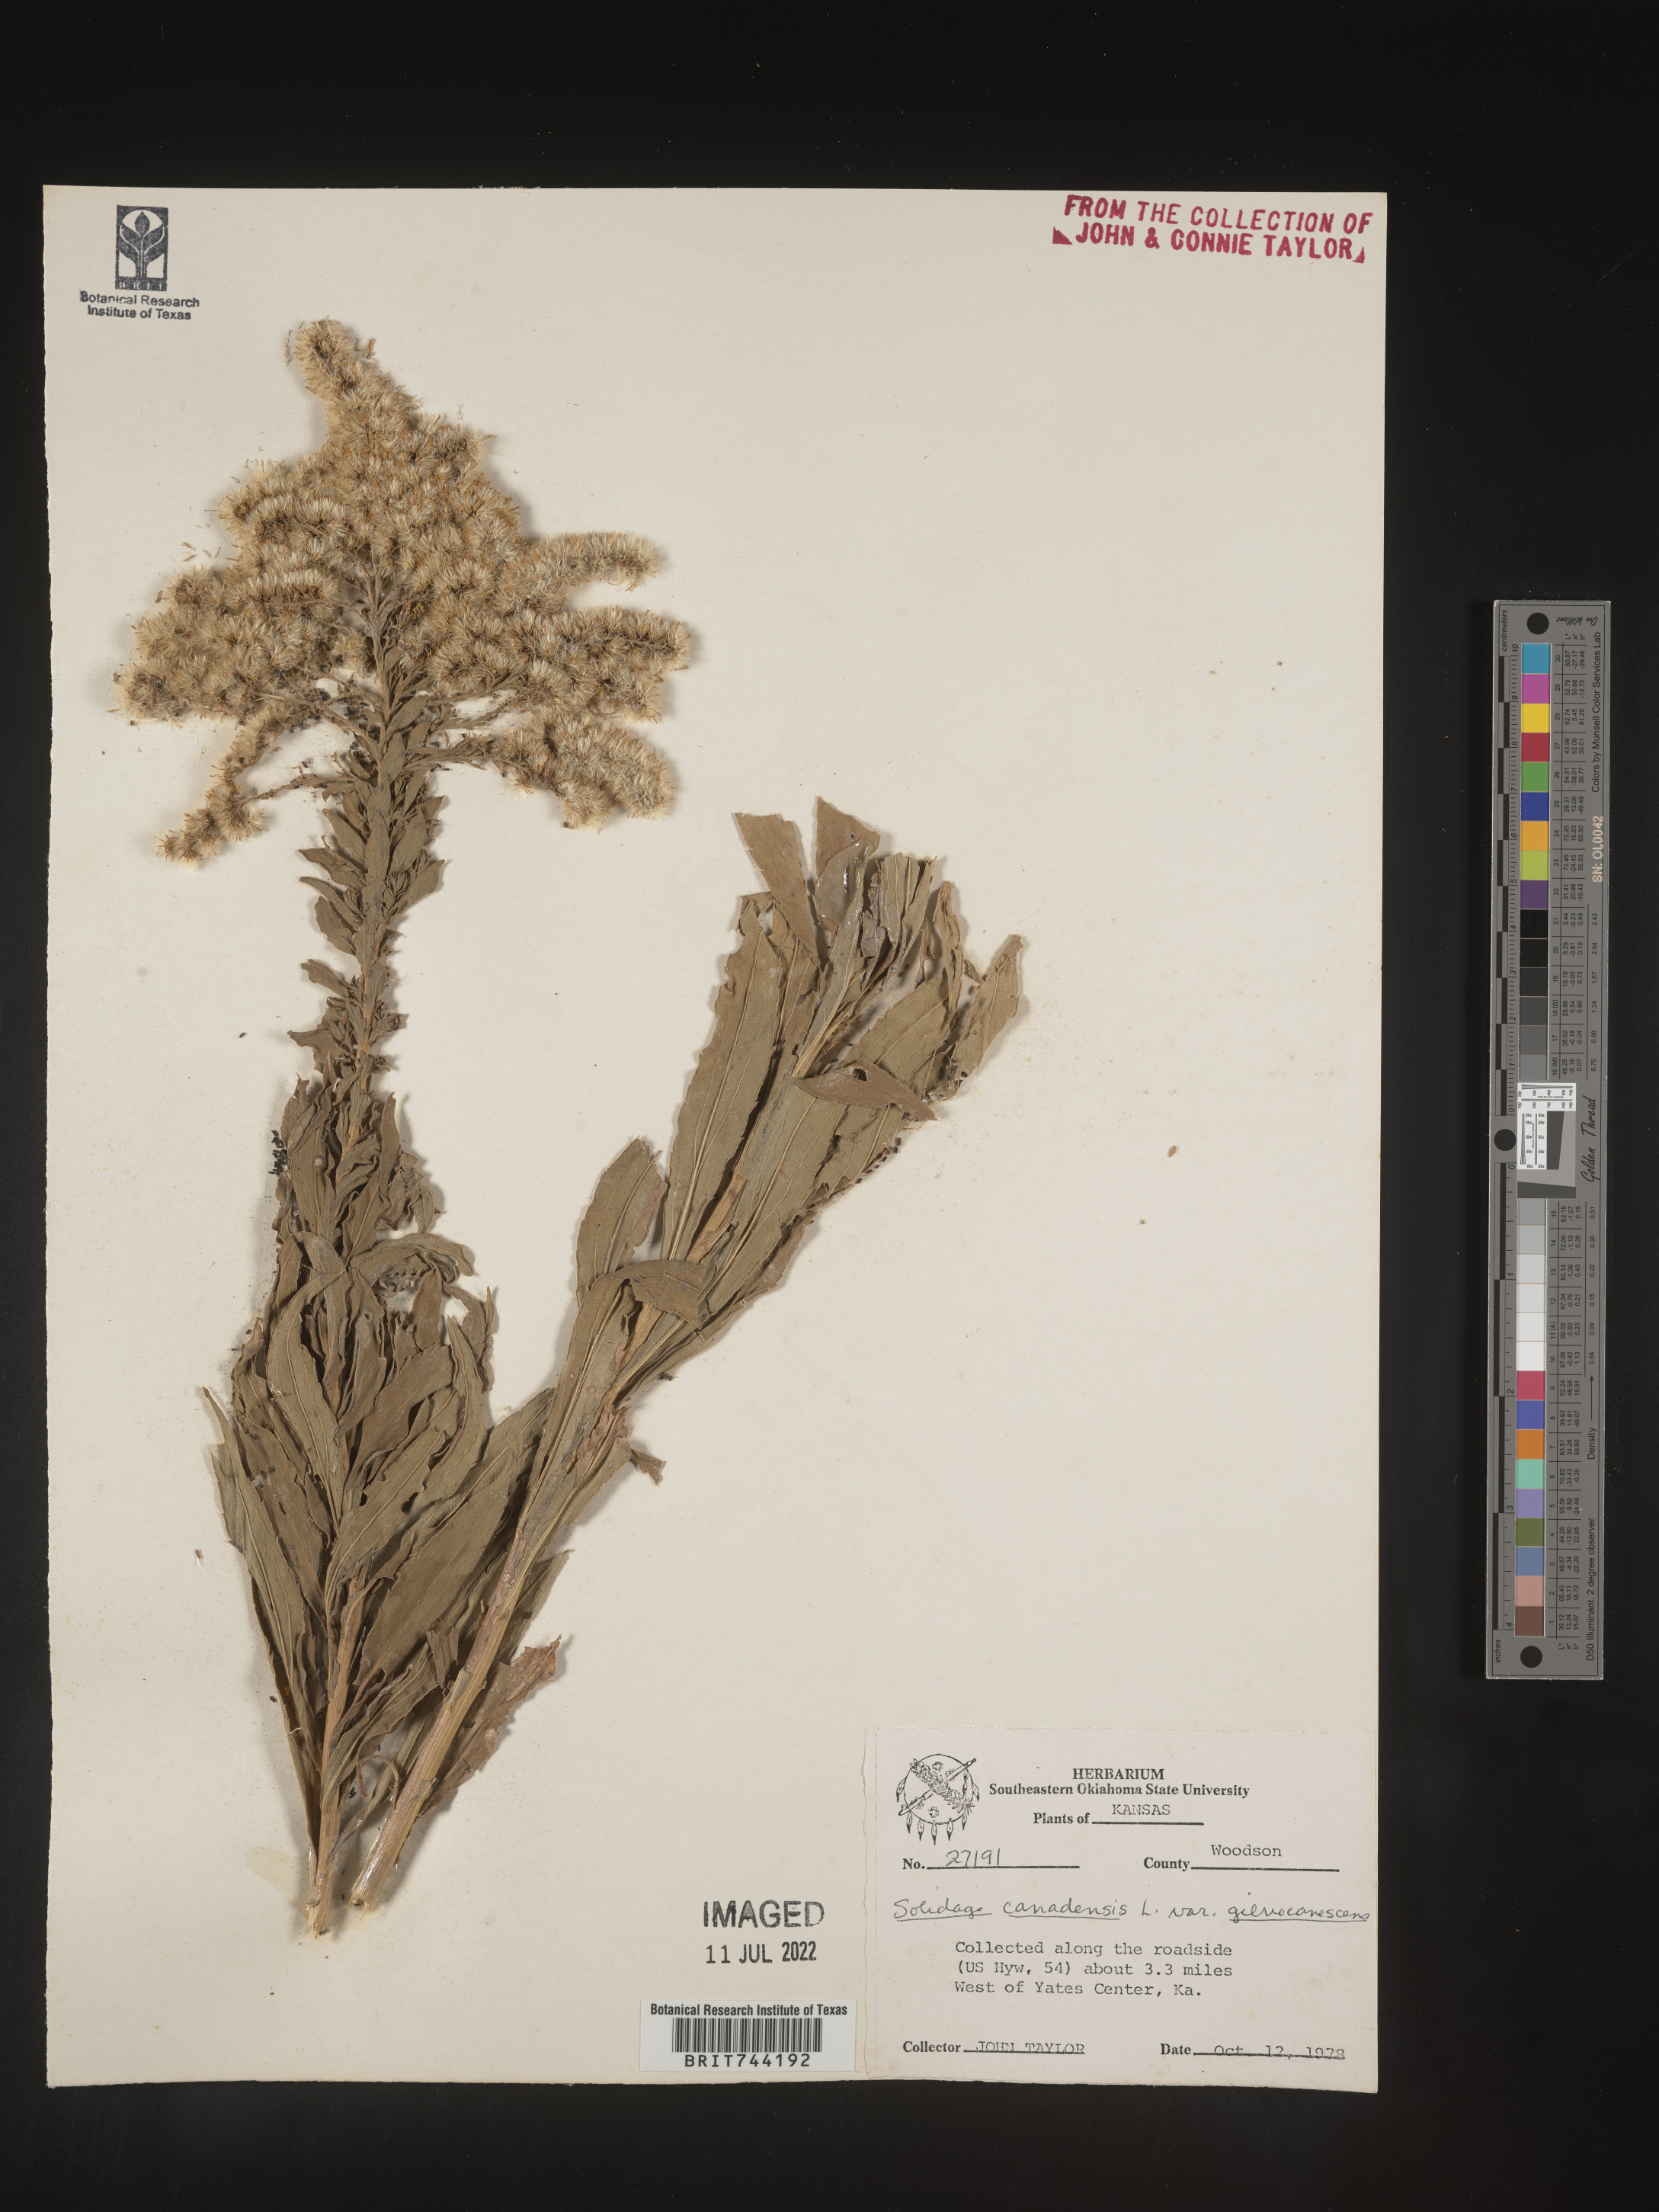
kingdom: Plantae
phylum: Tracheophyta
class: Magnoliopsida
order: Asterales
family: Asteraceae
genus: Solidago
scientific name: Solidago altissima
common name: Late goldenrod
